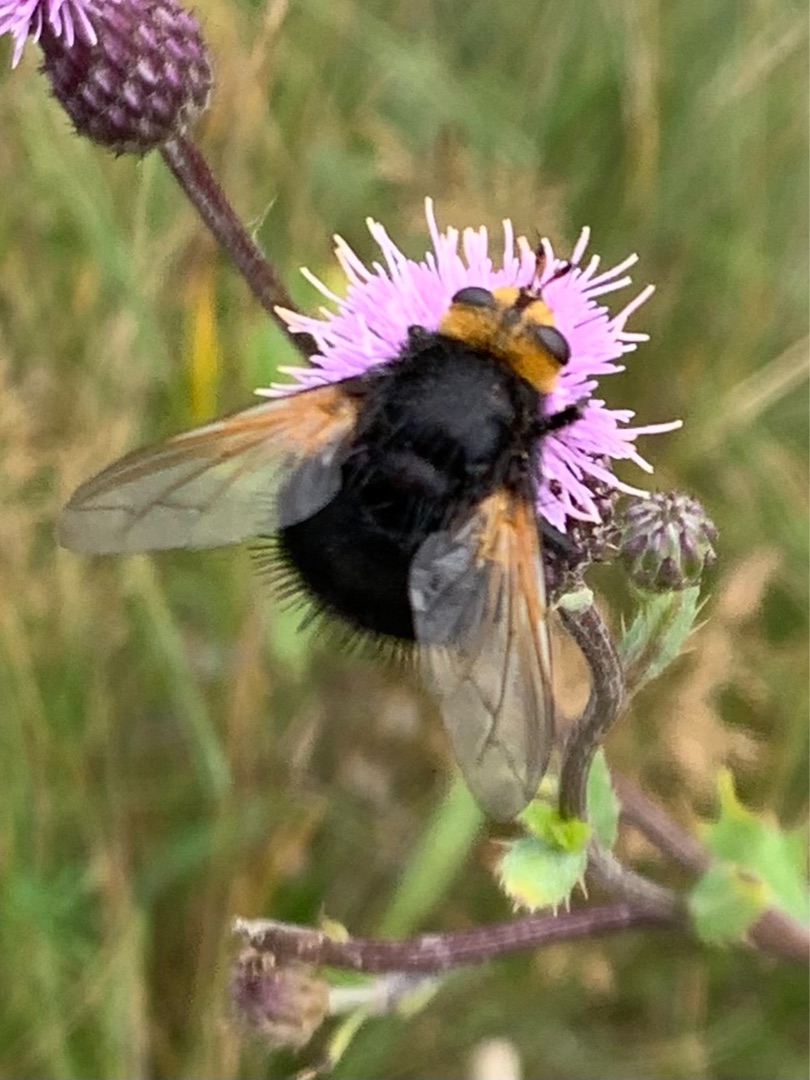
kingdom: Animalia
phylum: Arthropoda
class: Insecta
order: Diptera
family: Tachinidae
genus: Tachina
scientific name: Tachina grossa
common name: Kæmpefluen Harald
